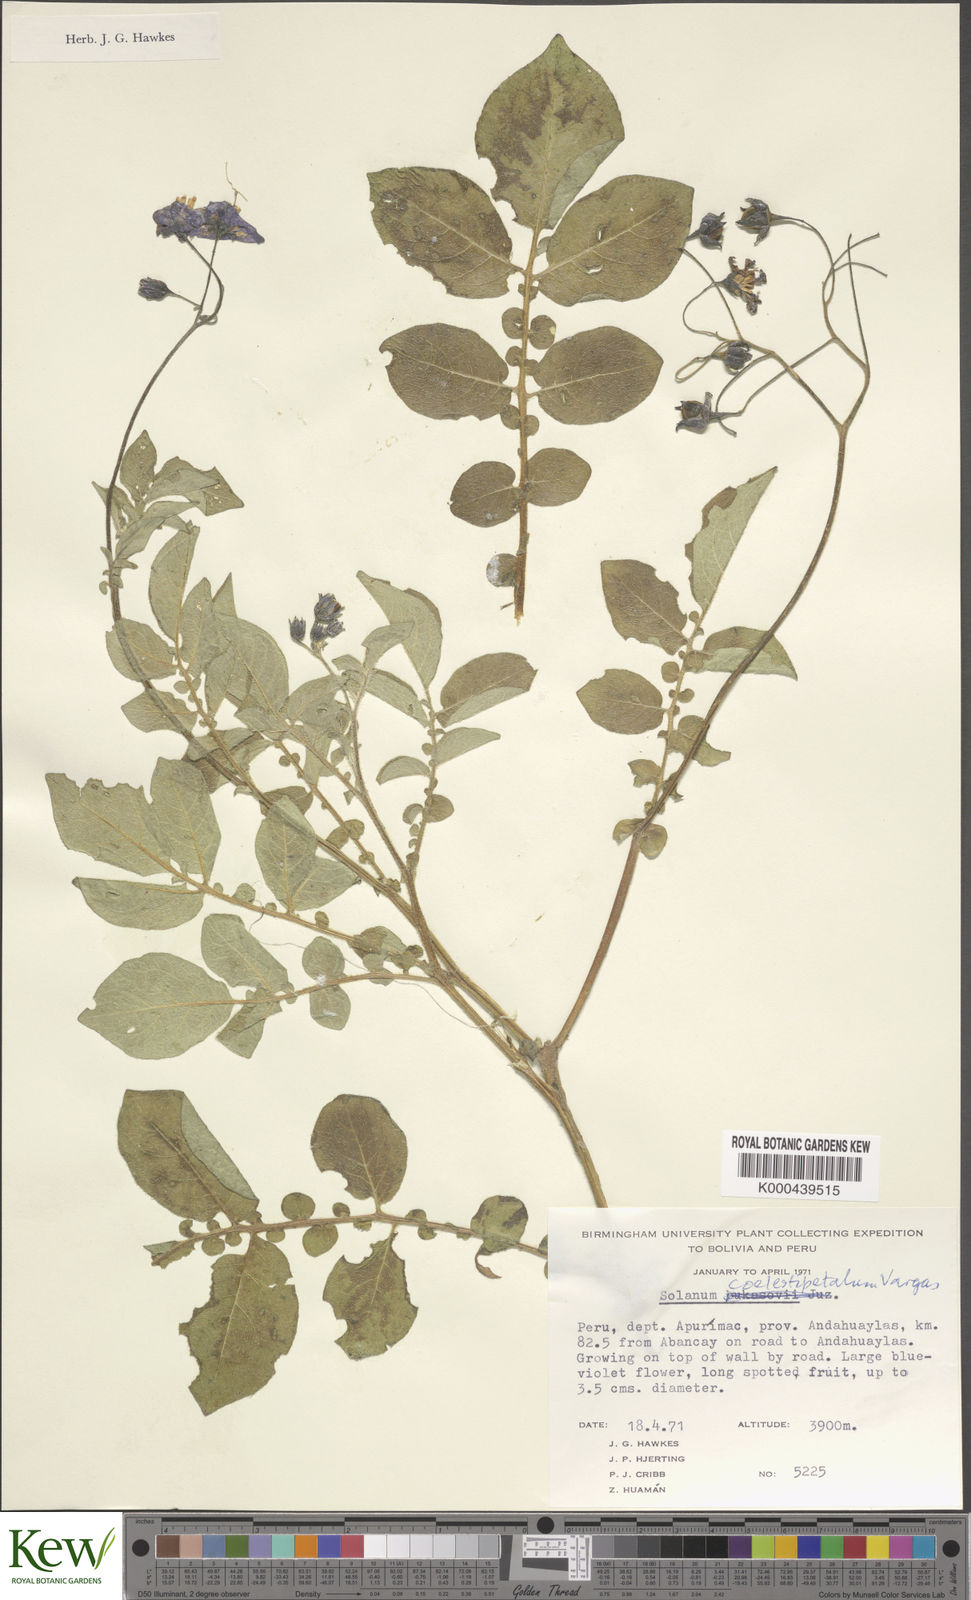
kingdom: Plantae
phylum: Tracheophyta
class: Magnoliopsida
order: Solanales
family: Solanaceae
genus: Solanum
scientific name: Solanum candolleanum
